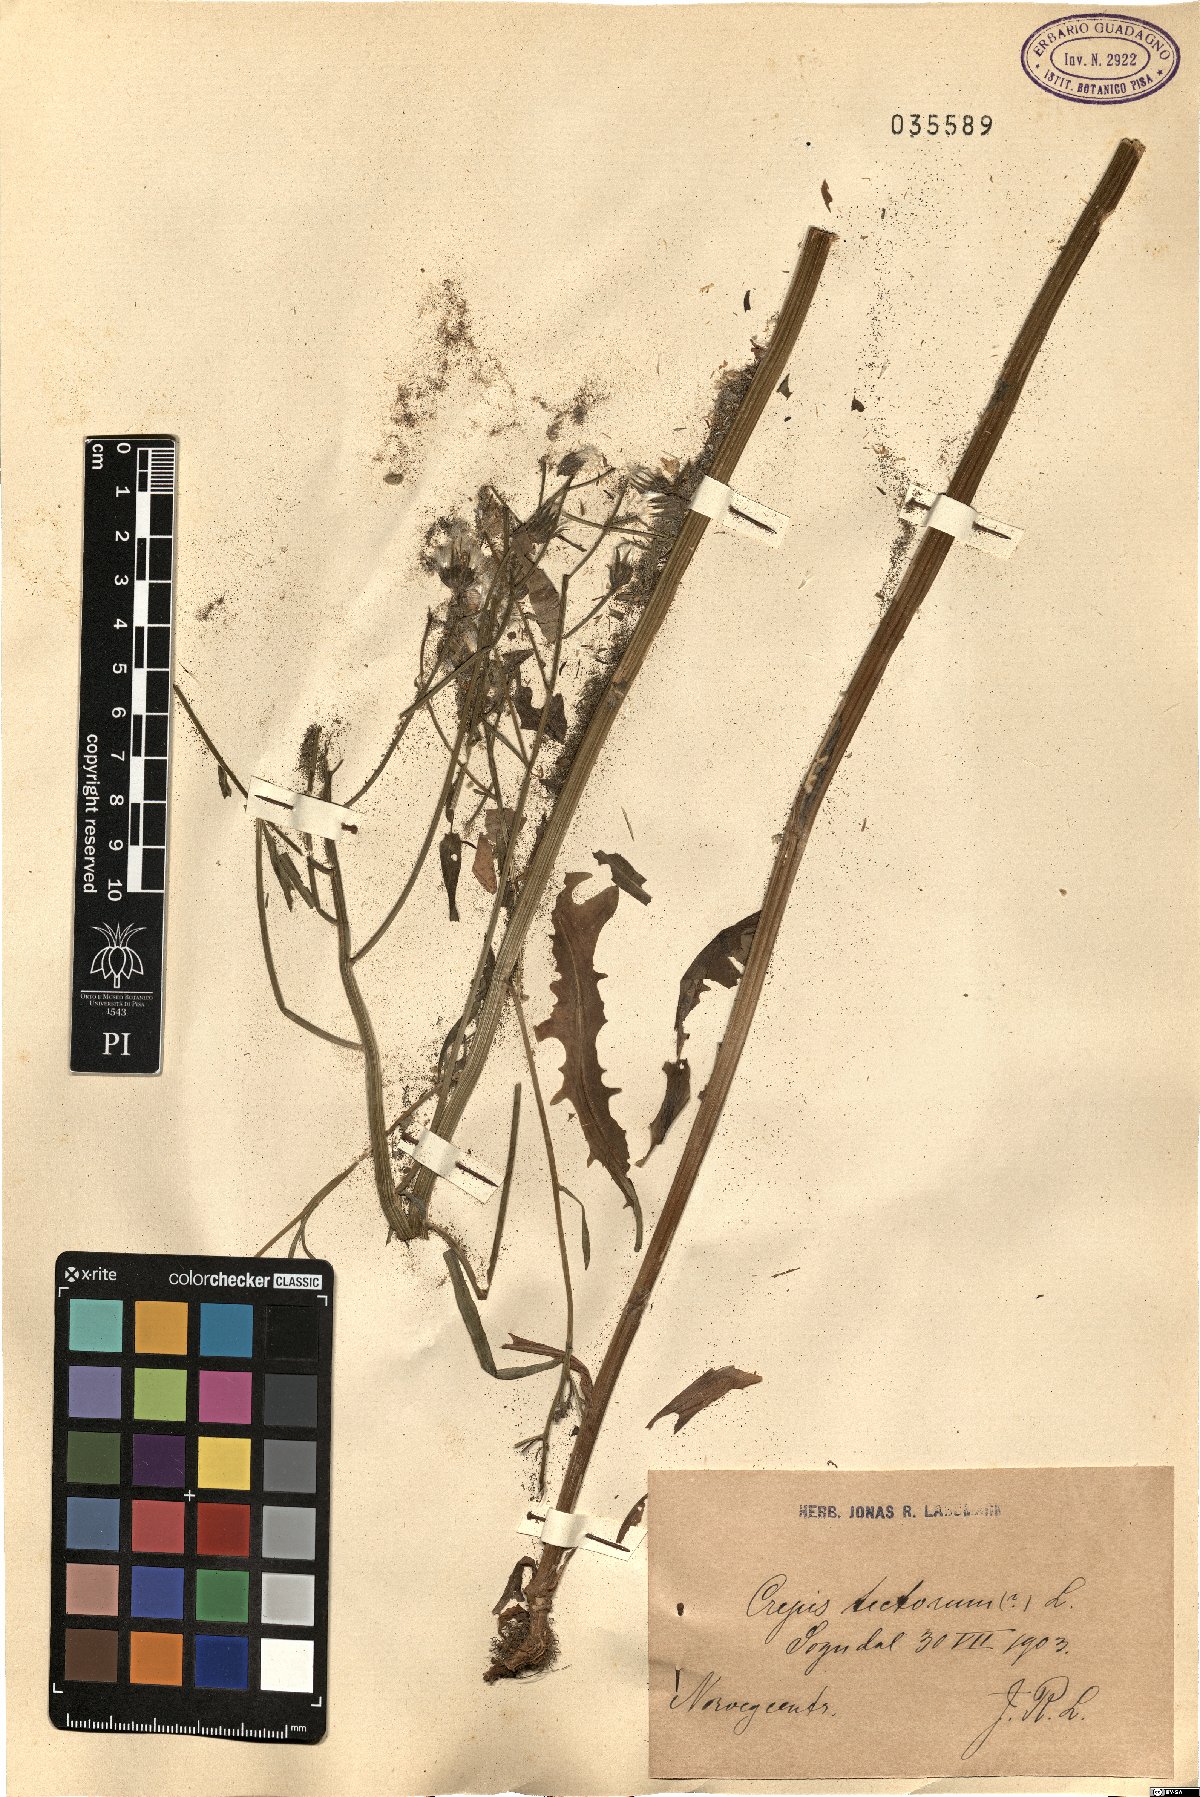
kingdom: Plantae
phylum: Tracheophyta
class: Magnoliopsida
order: Asterales
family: Asteraceae
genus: Crepis
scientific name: Crepis tectorum
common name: Narrow-leaved hawk's-beard
